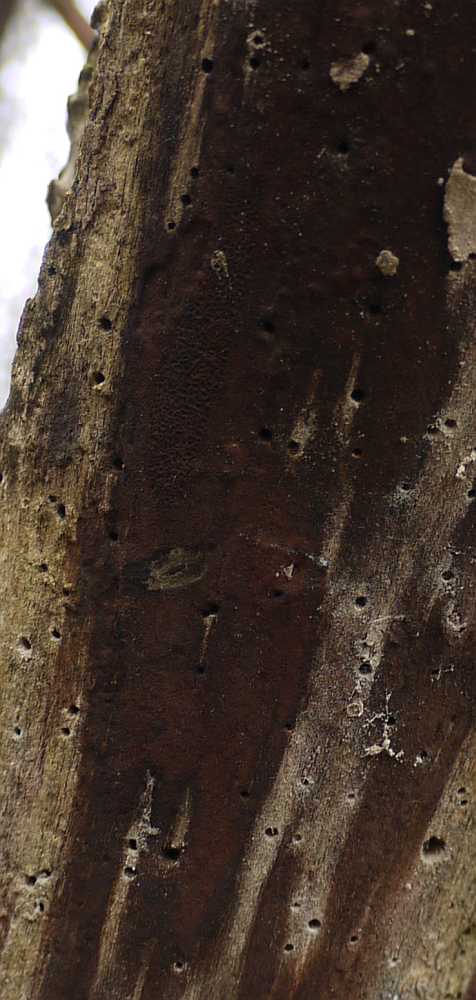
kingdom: Fungi
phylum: Ascomycota
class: Sordariomycetes
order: Xylariales
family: Hypoxylaceae
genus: Hypoxylon
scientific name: Hypoxylon macrocarpum
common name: skorpe-kulbær
